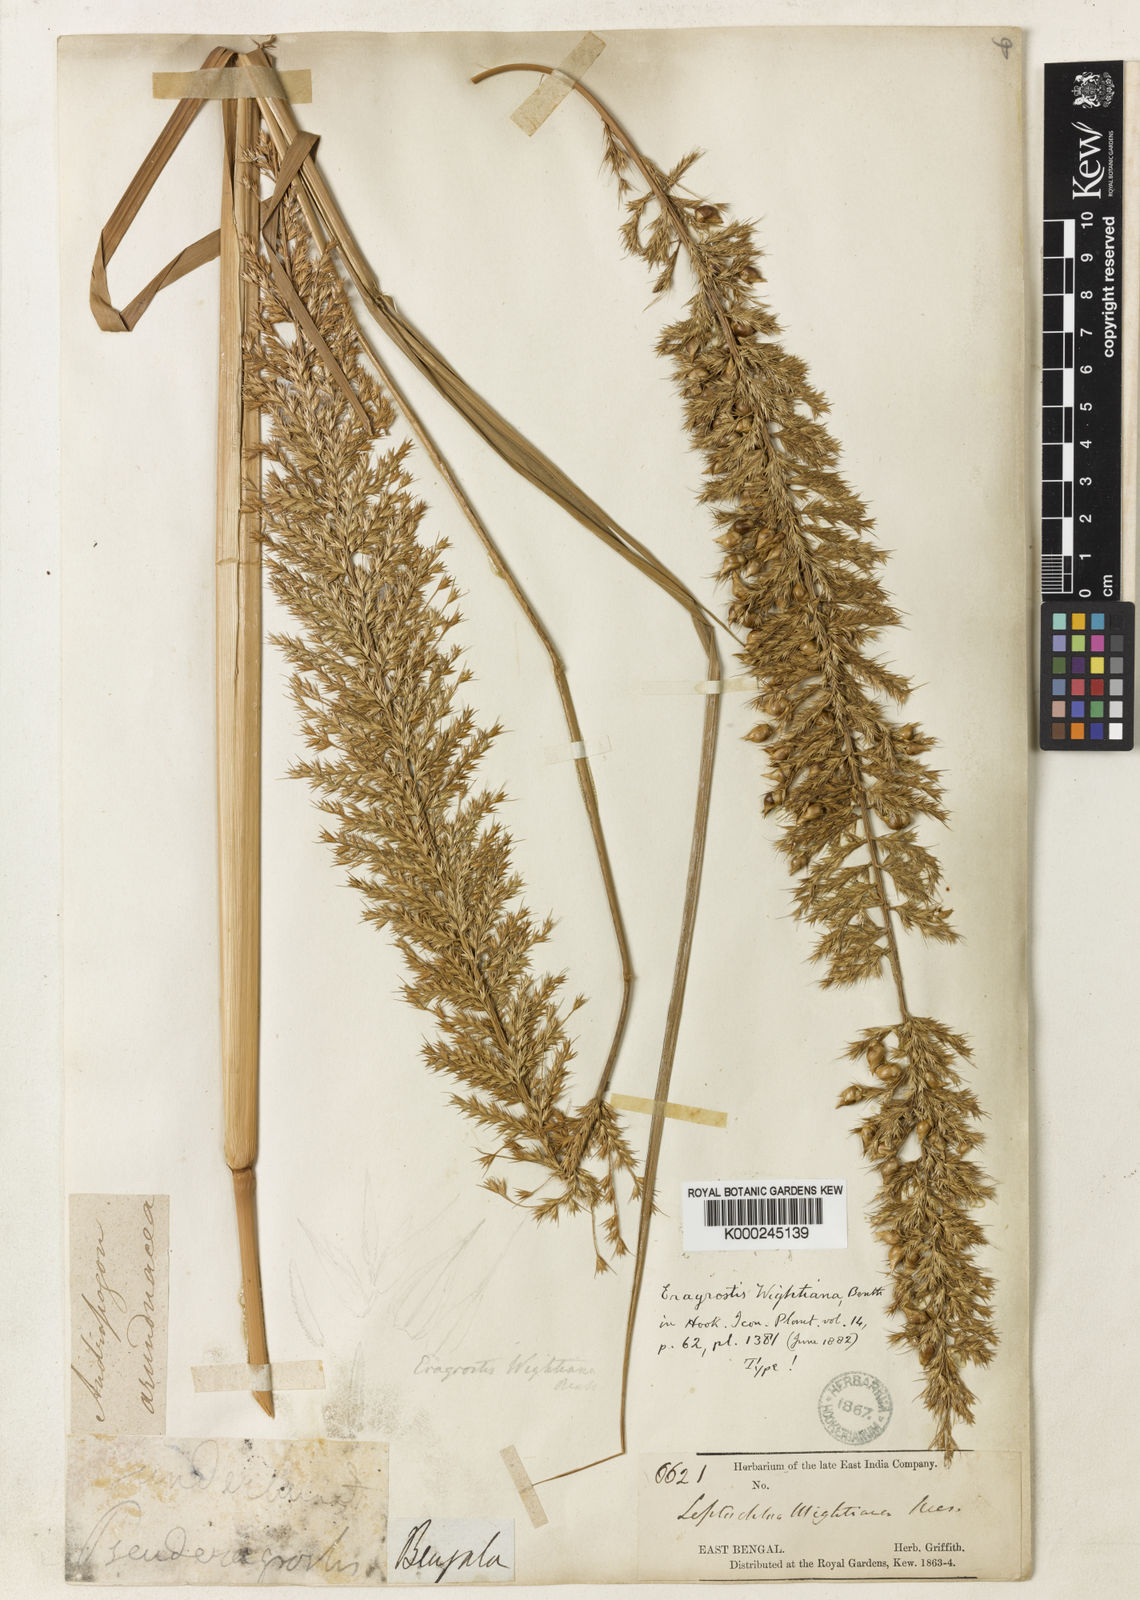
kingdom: Plantae
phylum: Tracheophyta
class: Liliopsida
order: Poales
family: Poaceae
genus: Myriostachya
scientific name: Myriostachya wightiana
